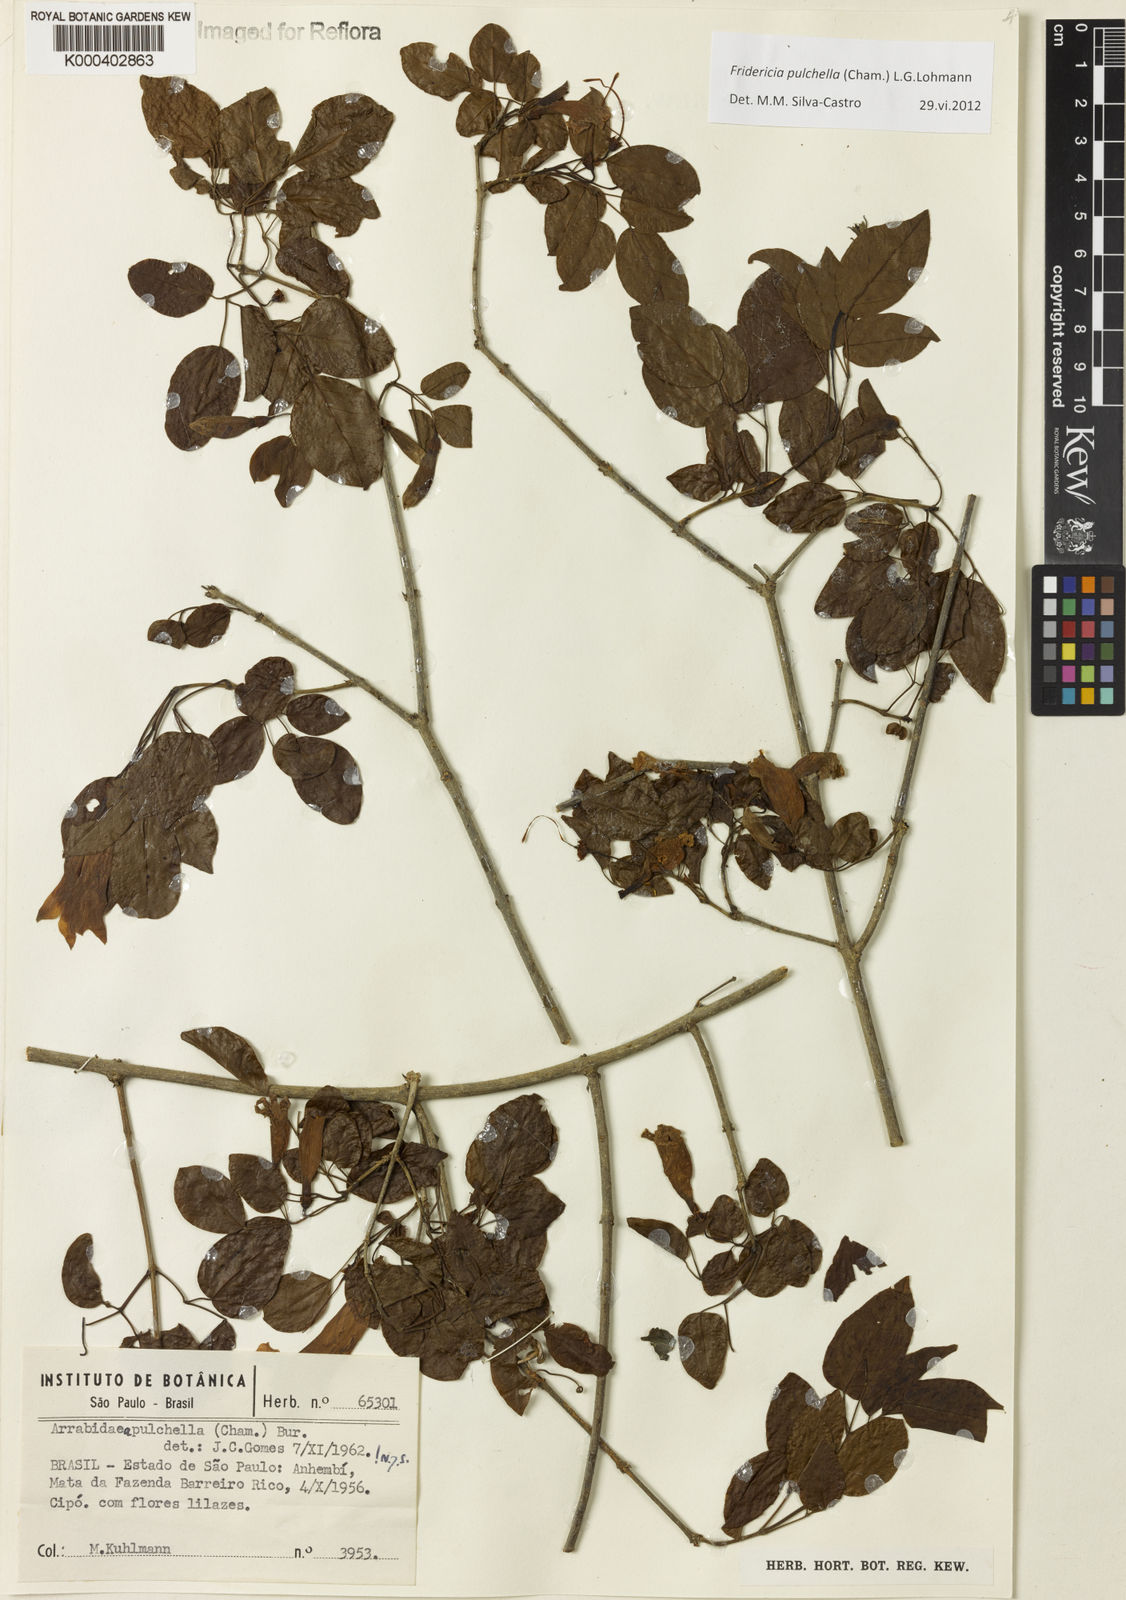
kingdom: Plantae
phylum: Tracheophyta
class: Magnoliopsida
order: Lamiales
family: Bignoniaceae
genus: Fridericia
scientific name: Fridericia
